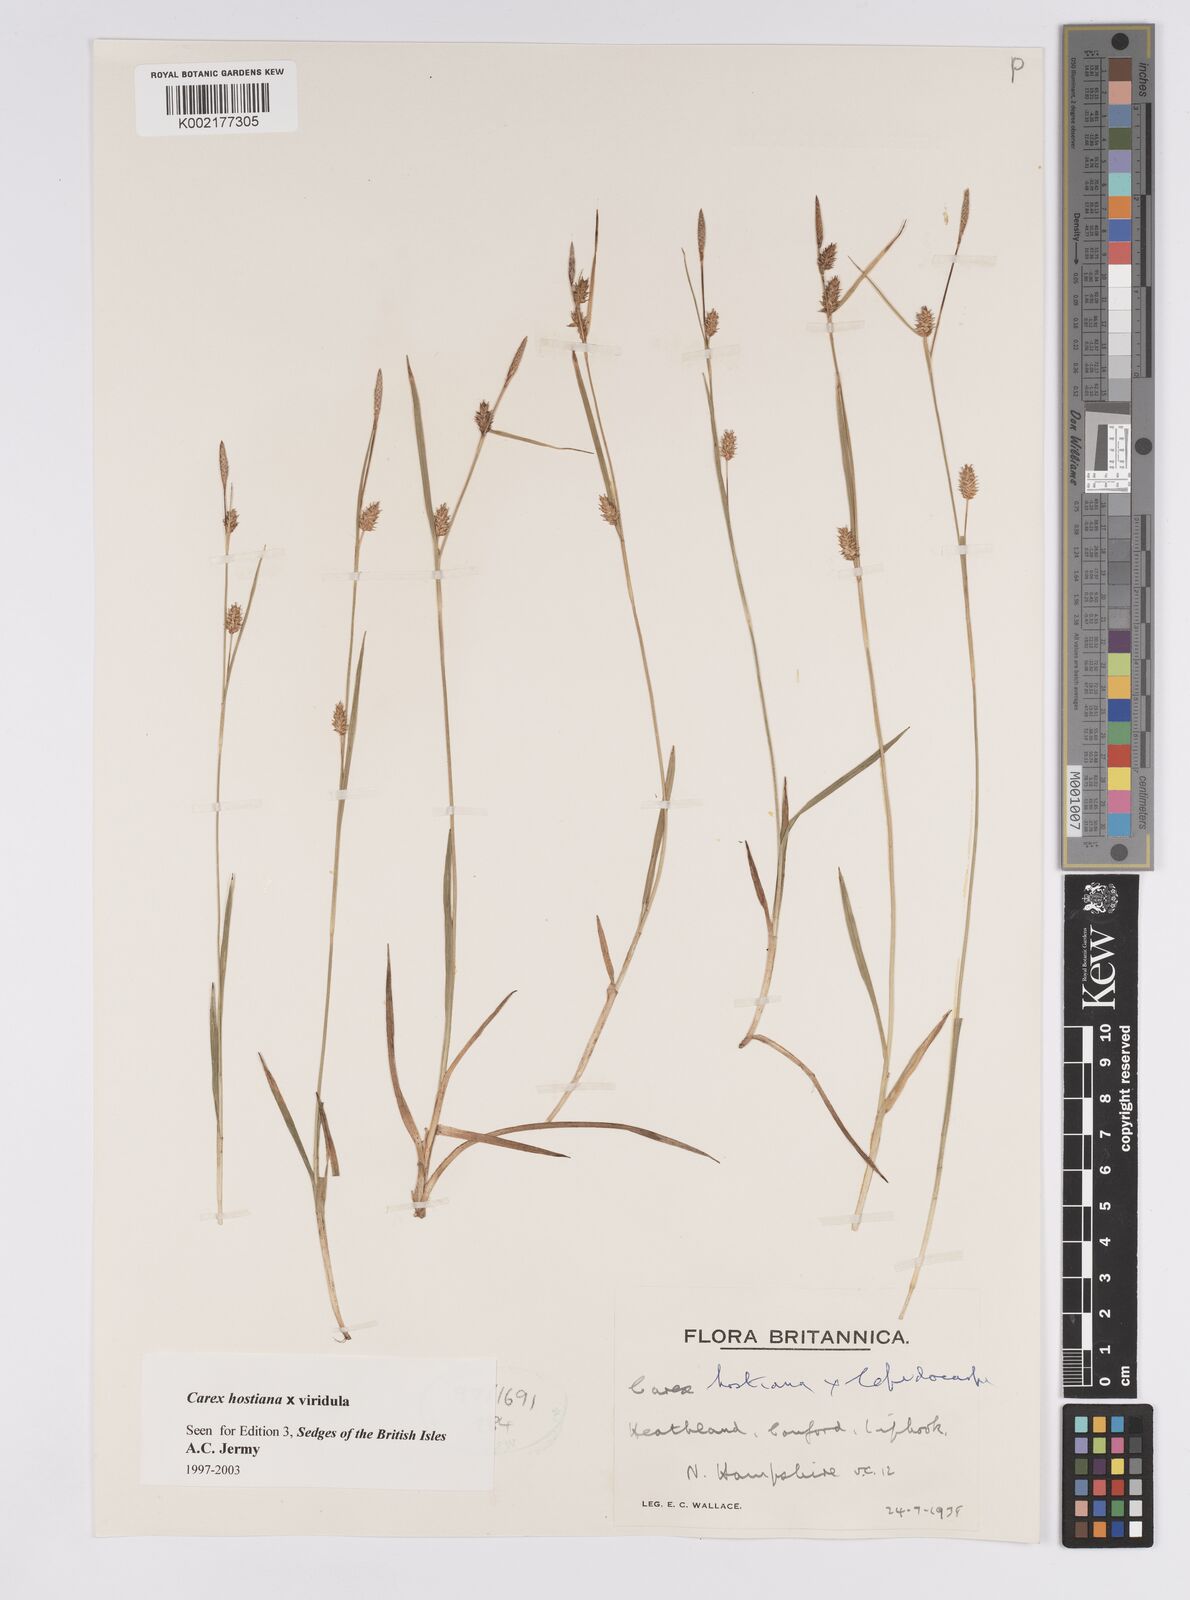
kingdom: Plantae
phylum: Tracheophyta
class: Liliopsida
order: Poales
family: Cyperaceae
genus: Carex
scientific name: Carex hostiana
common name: Tawny sedge
